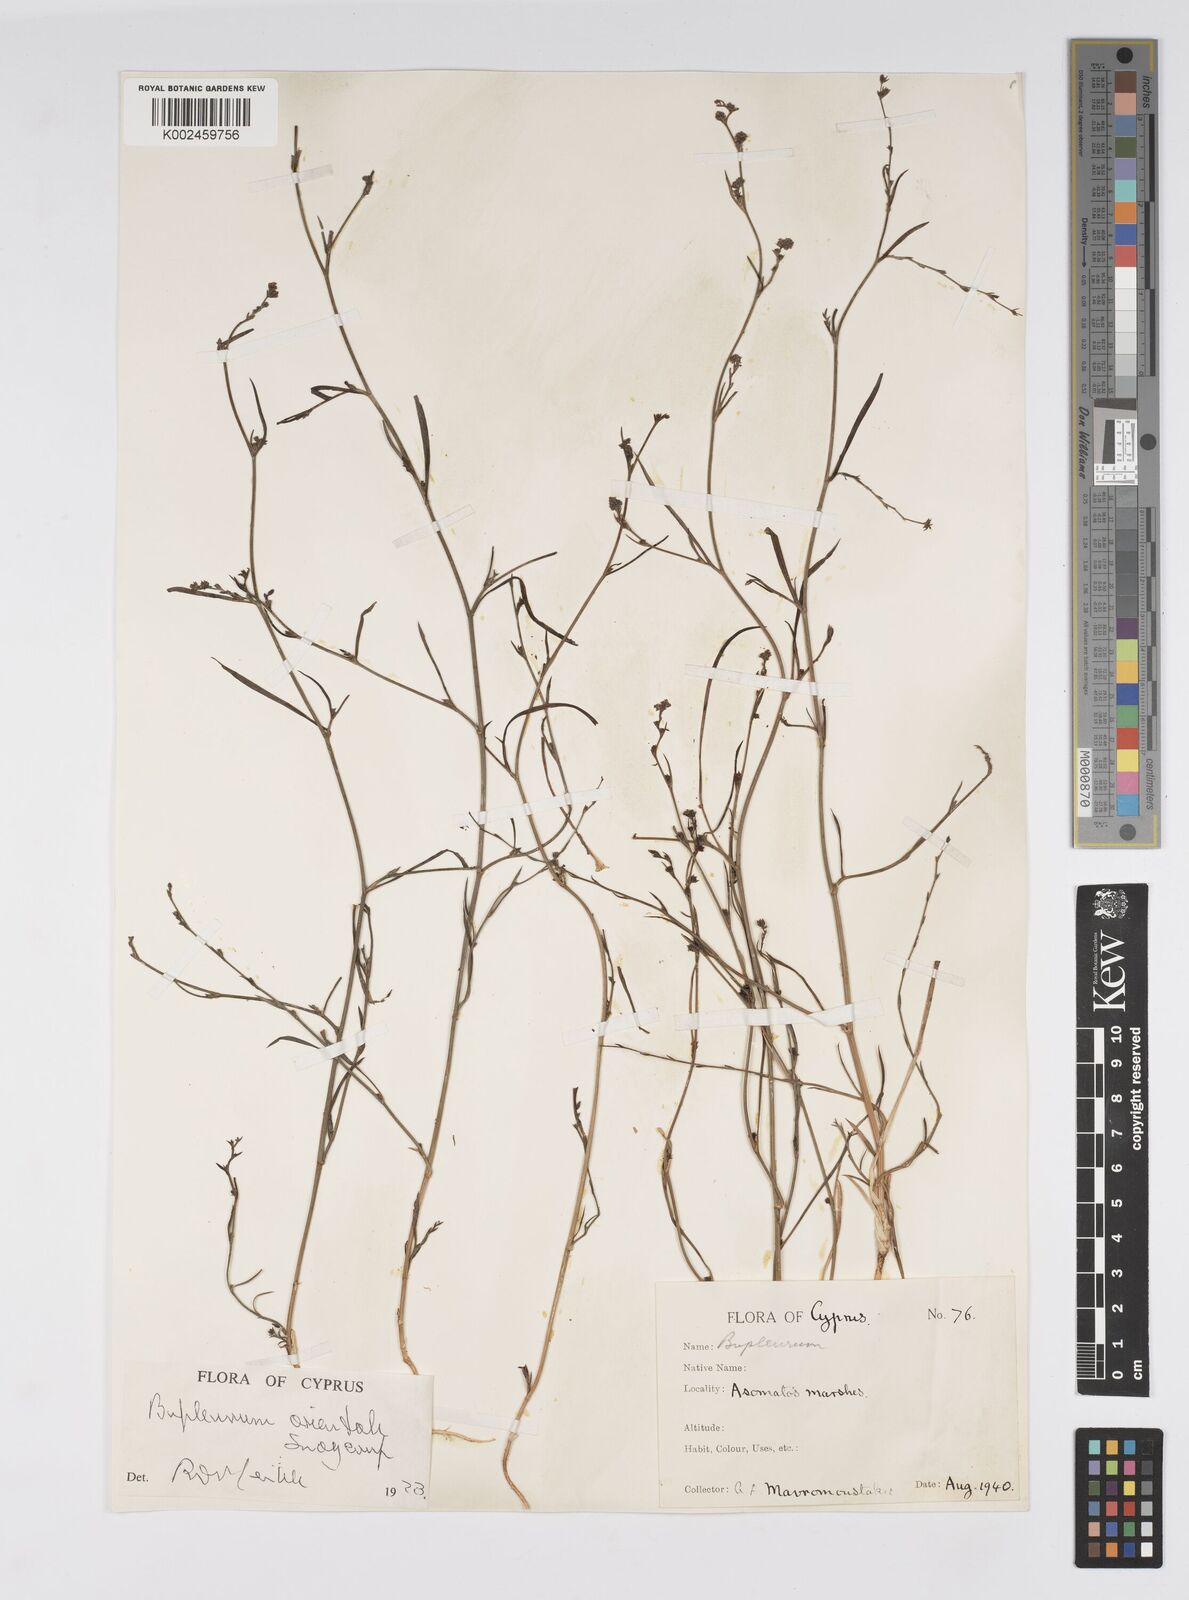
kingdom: Plantae
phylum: Tracheophyta
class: Magnoliopsida
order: Apiales
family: Apiaceae
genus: Bupleurum
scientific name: Bupleurum orientale
